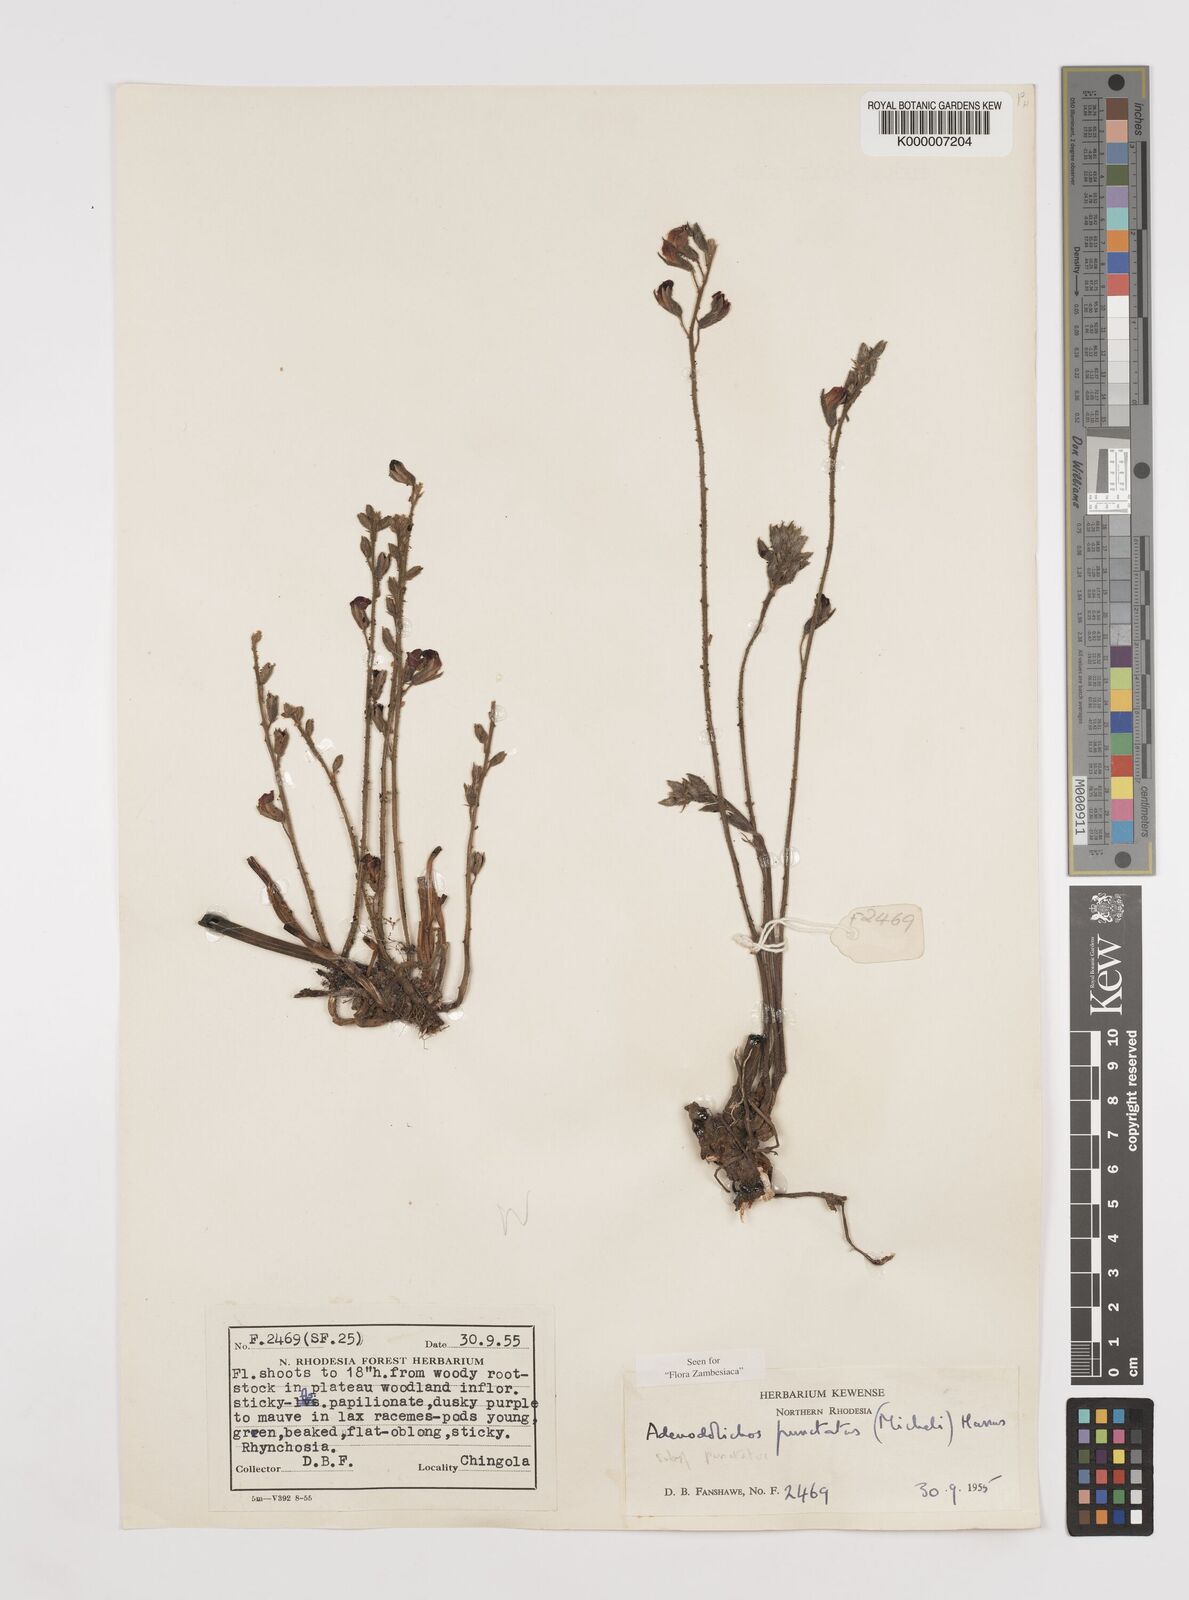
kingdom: Plantae
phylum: Tracheophyta
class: Magnoliopsida
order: Fabales
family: Fabaceae
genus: Adenodolichos
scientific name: Adenodolichos punctatus
